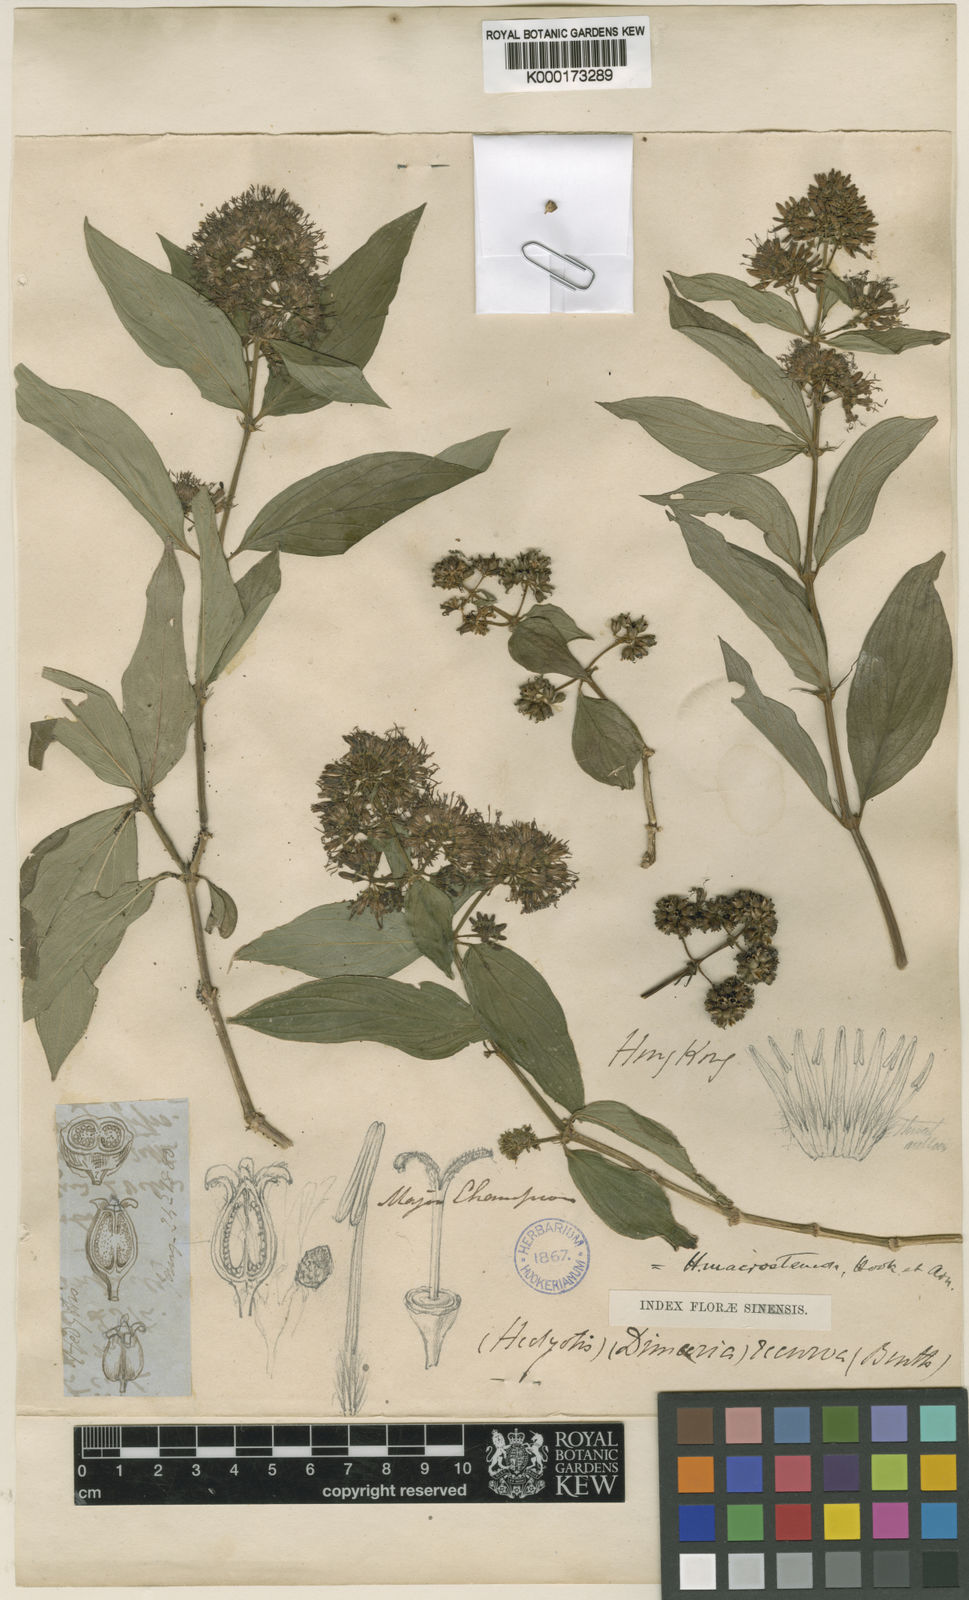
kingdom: Plantae
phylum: Tracheophyta
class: Magnoliopsida
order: Gentianales
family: Rubiaceae
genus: Dimetia
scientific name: Dimetia hedyotidea
